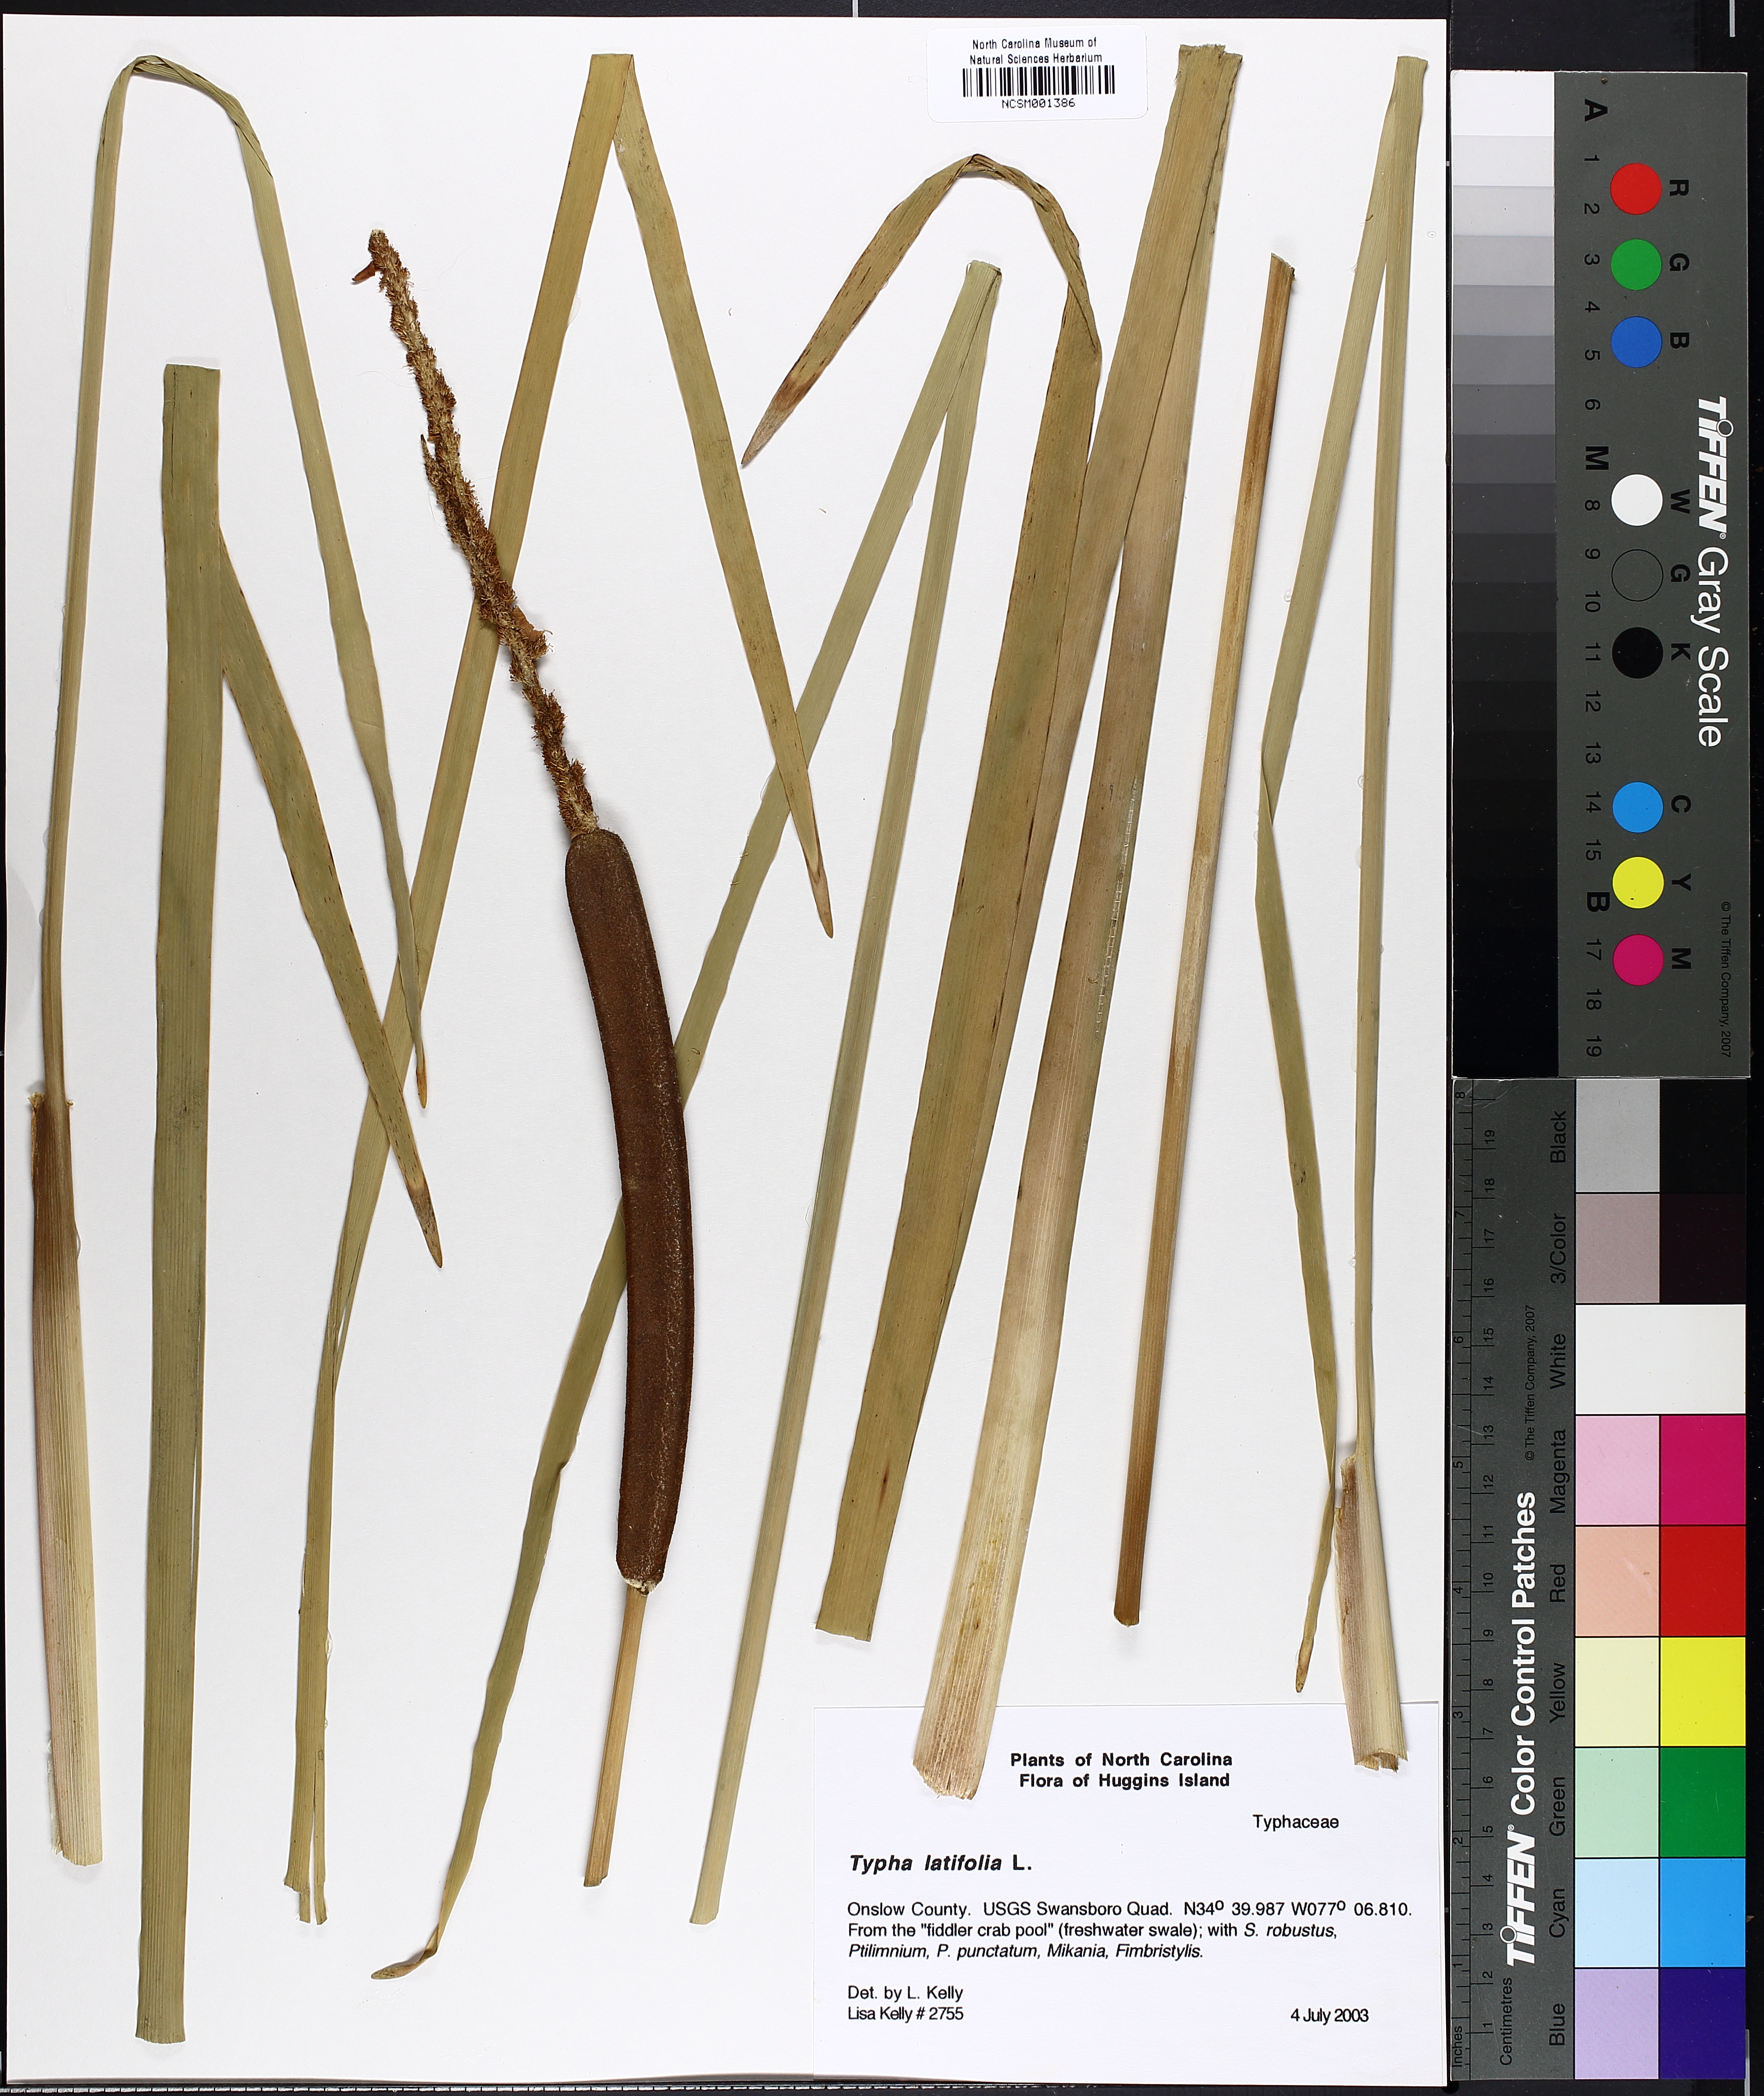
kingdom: Plantae
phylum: Tracheophyta
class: Liliopsida
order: Poales
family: Typhaceae
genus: Typha
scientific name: Typha latifolia
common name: Broadleaf cattail
